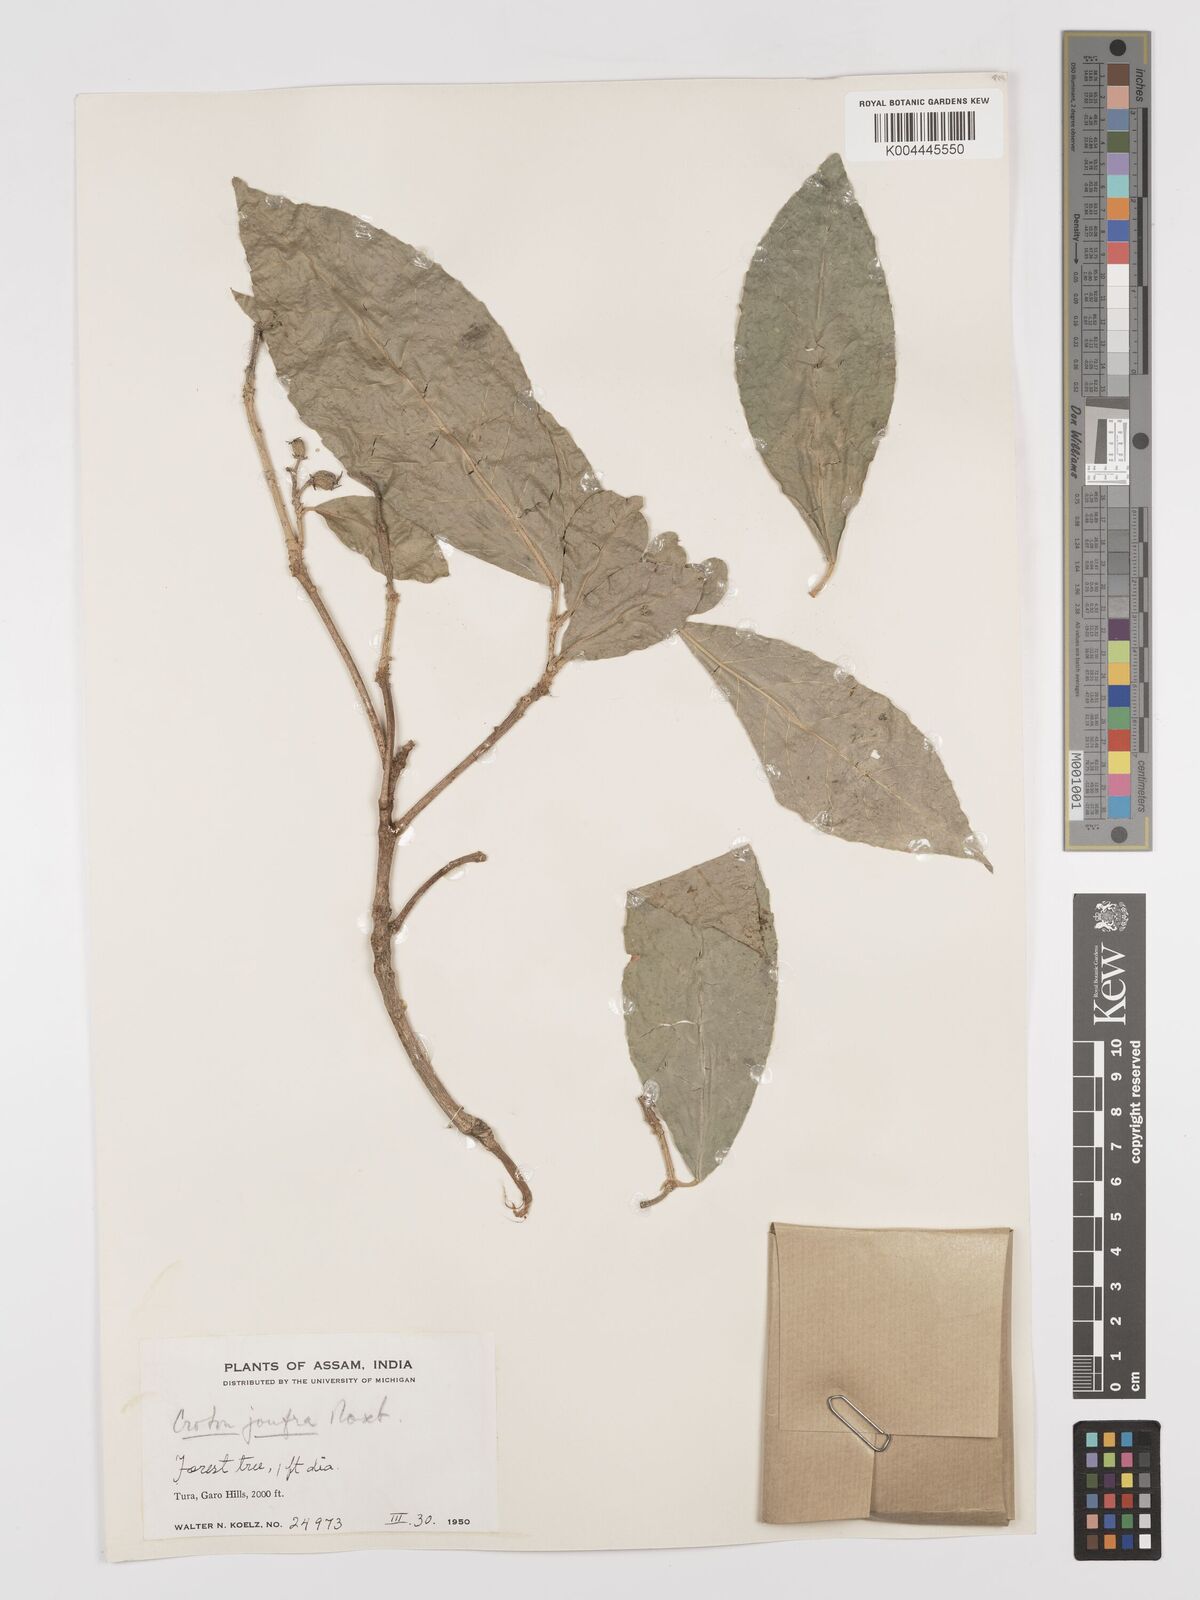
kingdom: Plantae
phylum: Tracheophyta
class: Magnoliopsida
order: Malpighiales
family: Euphorbiaceae
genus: Croton
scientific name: Croton joufra
